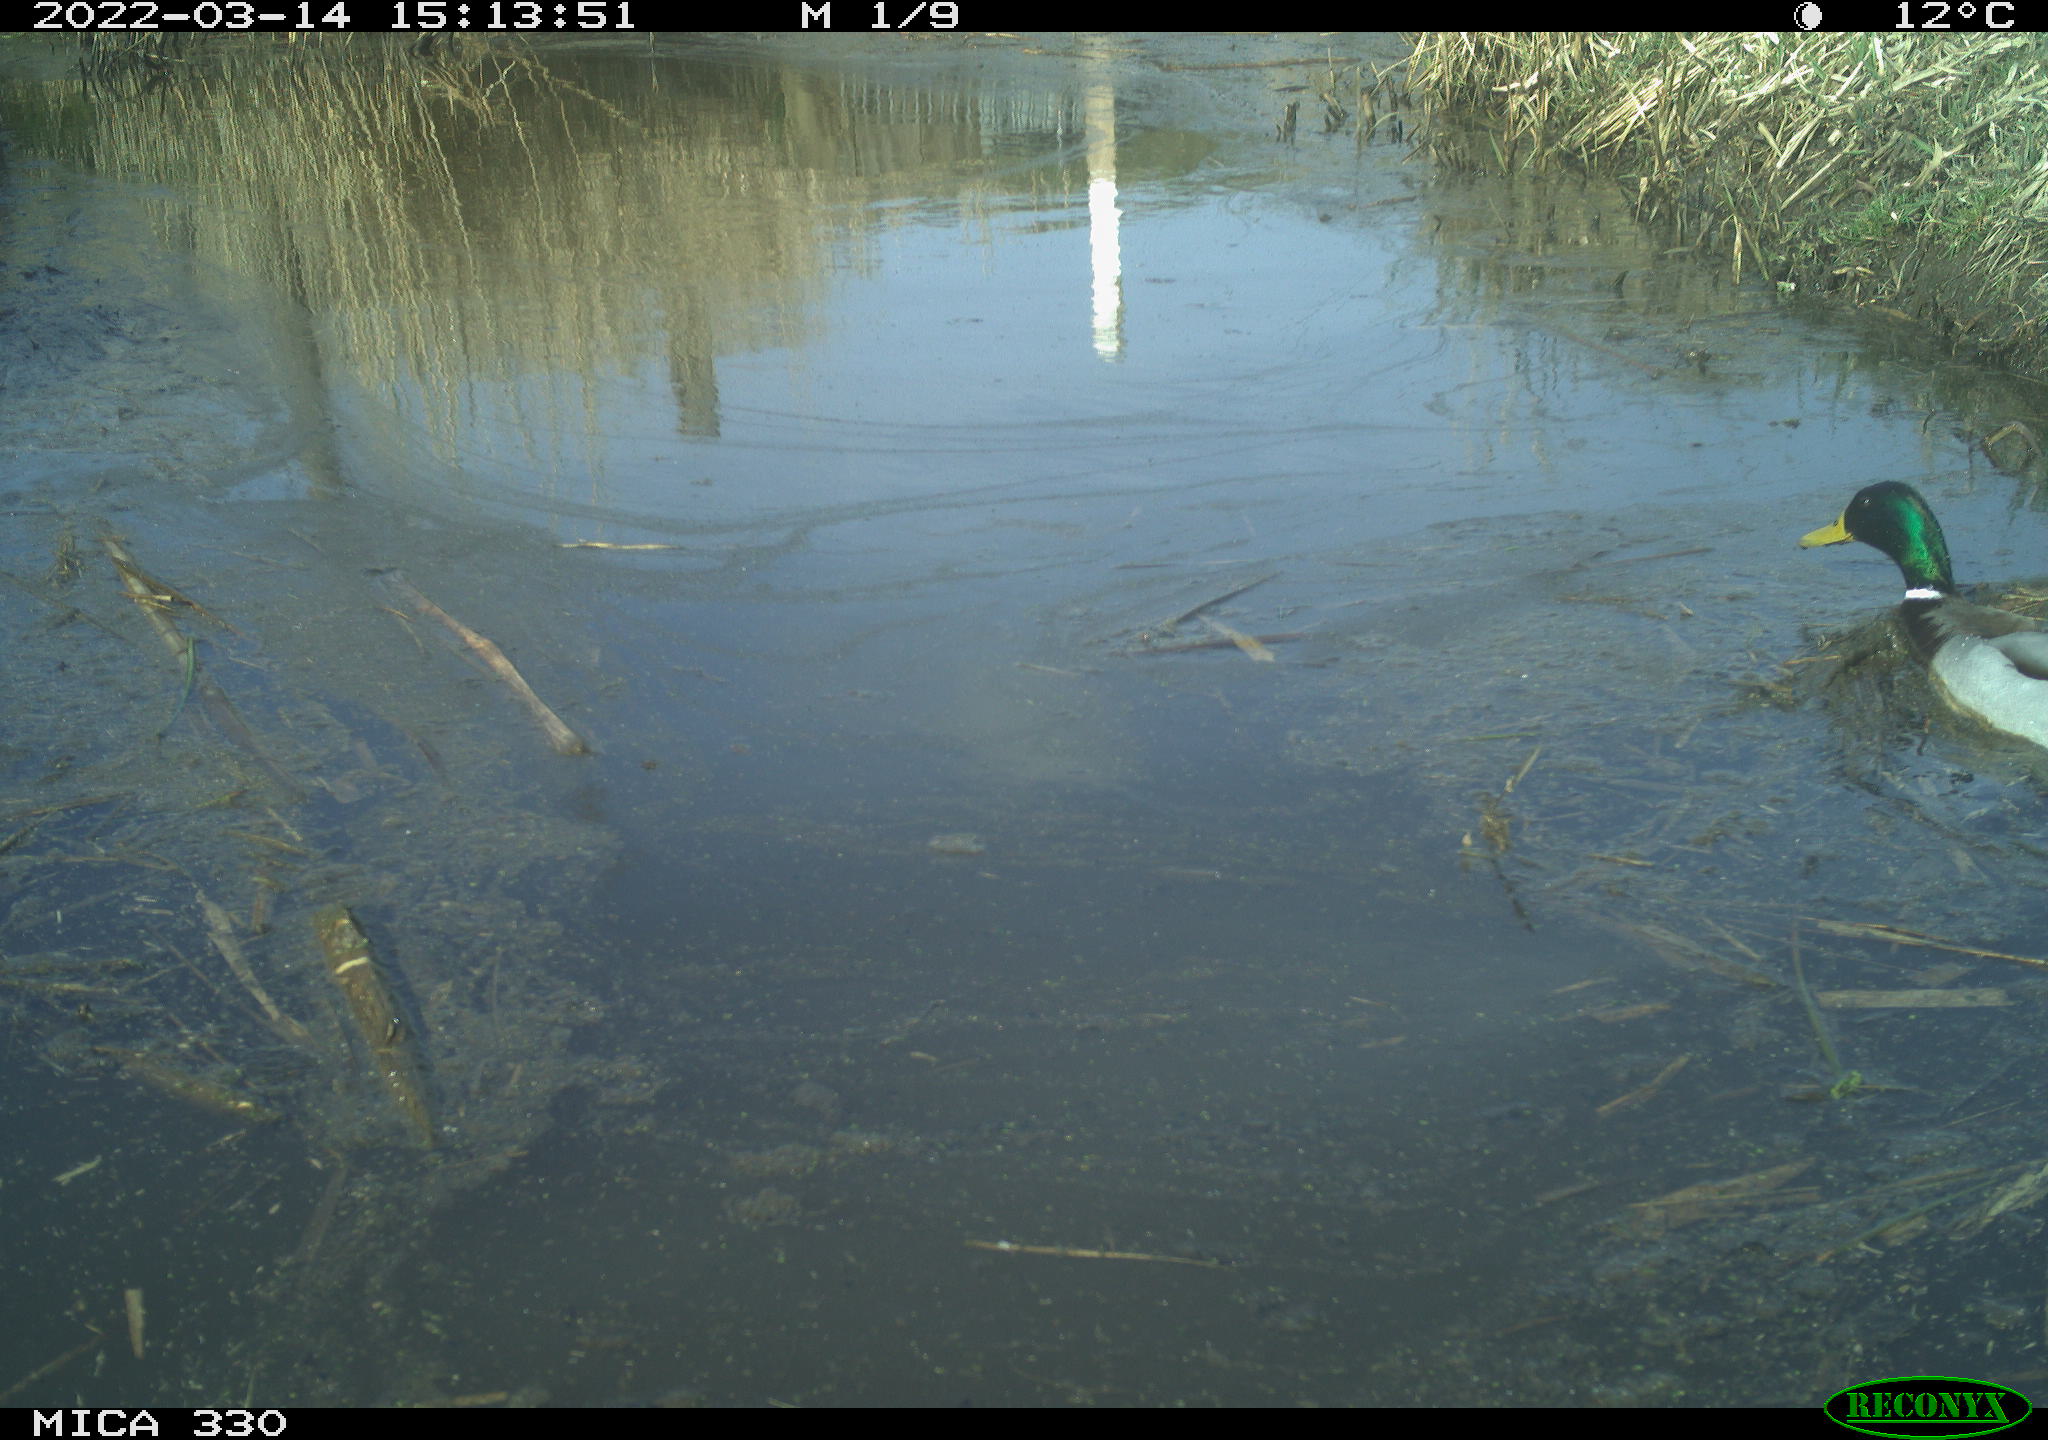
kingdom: Animalia
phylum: Chordata
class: Aves
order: Anseriformes
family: Anatidae
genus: Anas
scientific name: Anas platyrhynchos
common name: Mallard
